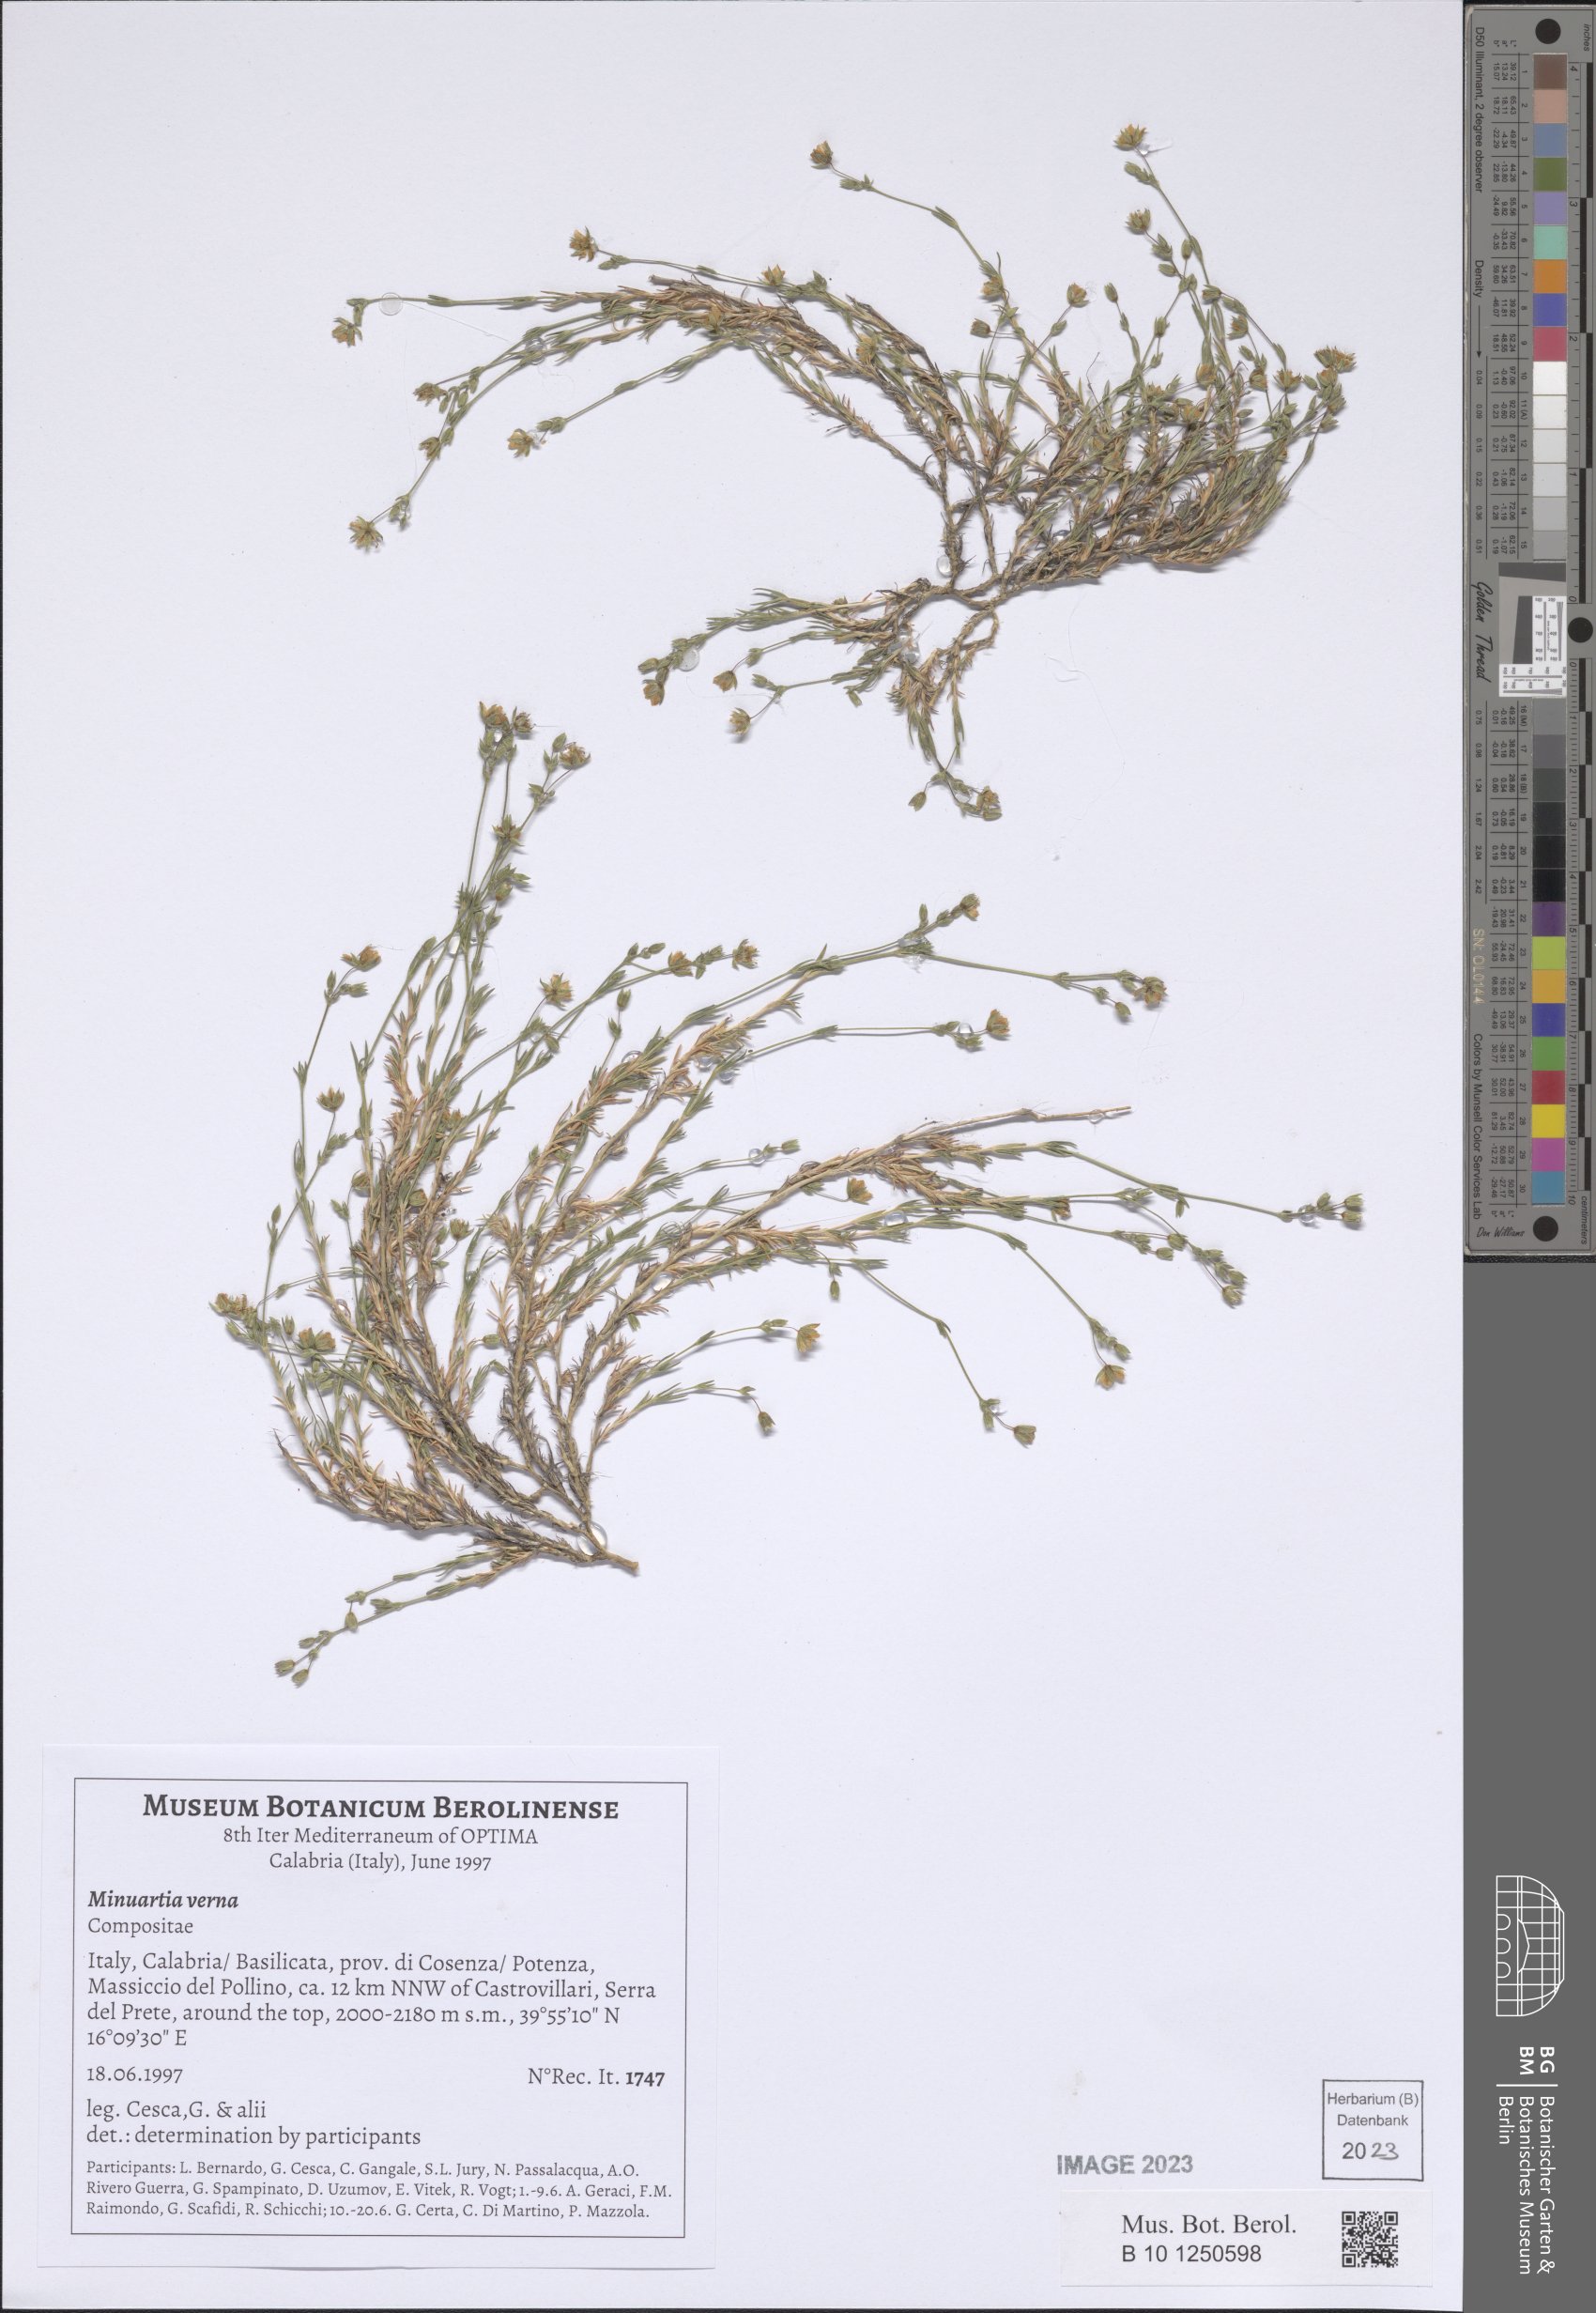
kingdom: Plantae
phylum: Tracheophyta
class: Magnoliopsida
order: Caryophyllales
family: Caryophyllaceae
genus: Sabulina
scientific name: Sabulina verna
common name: Spring sandwort
